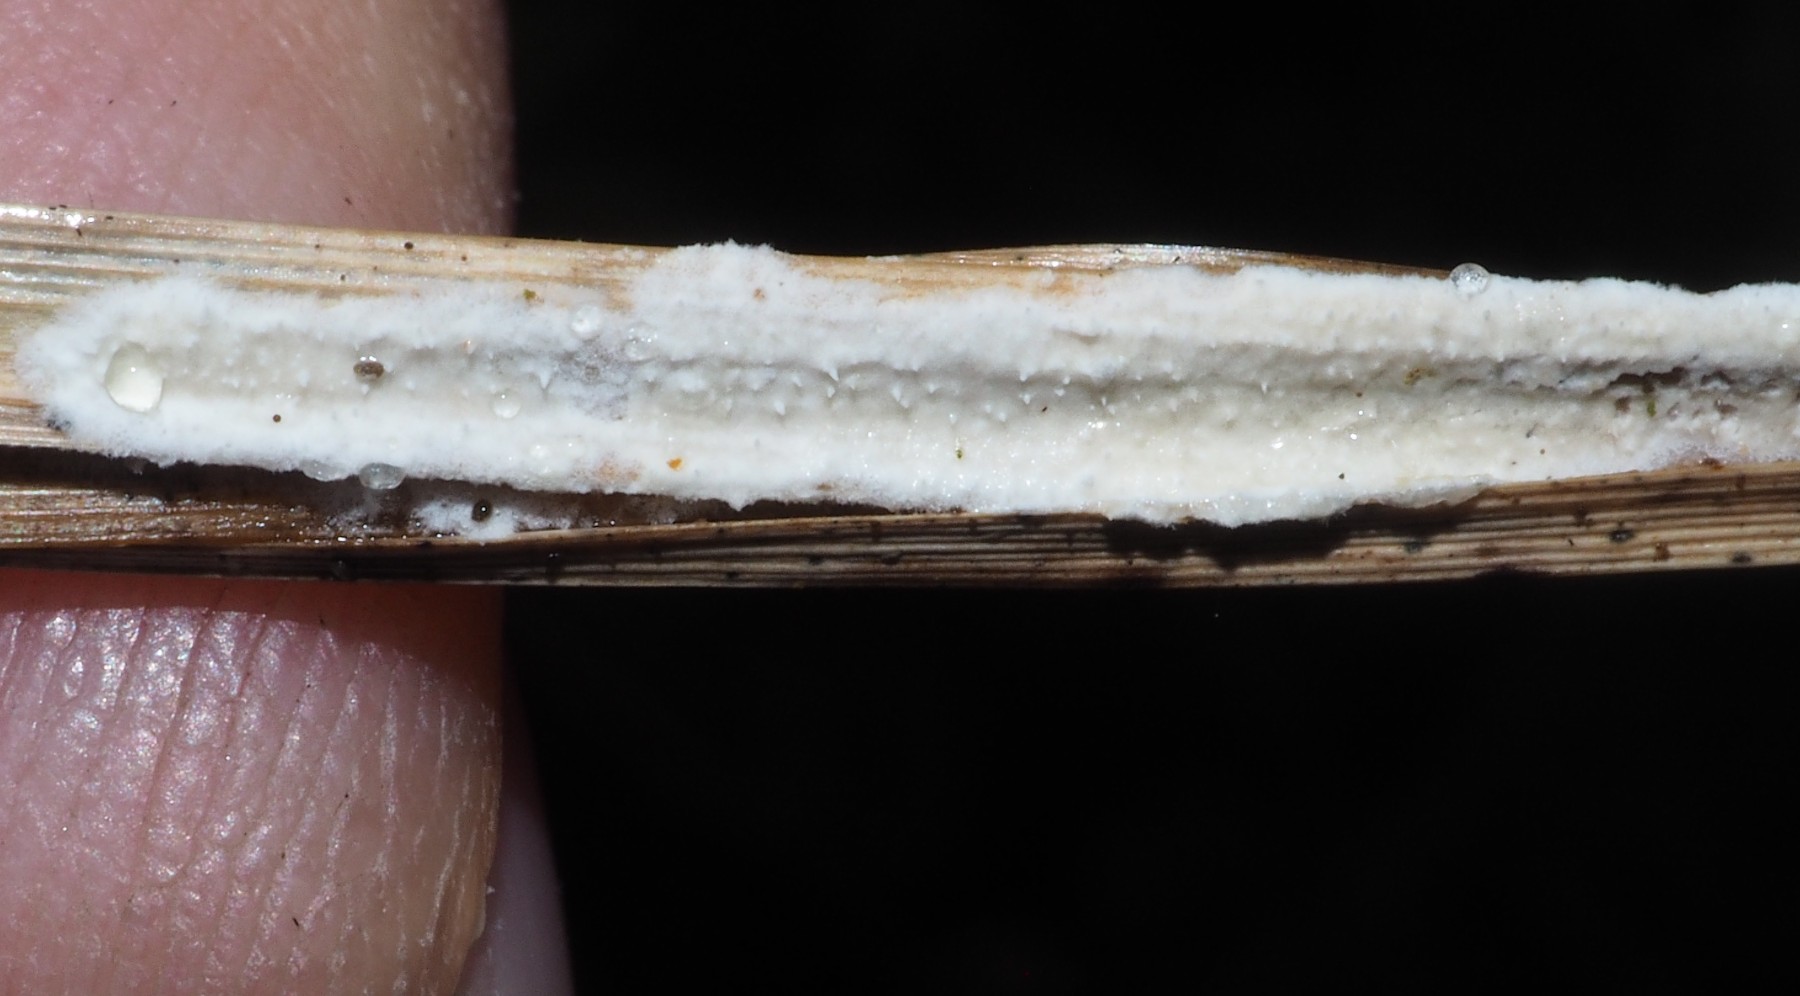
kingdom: Fungi
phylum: Basidiomycota
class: Agaricomycetes
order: Polyporales
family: Polyporaceae
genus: Epithele
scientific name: Epithele typhae
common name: starpig
